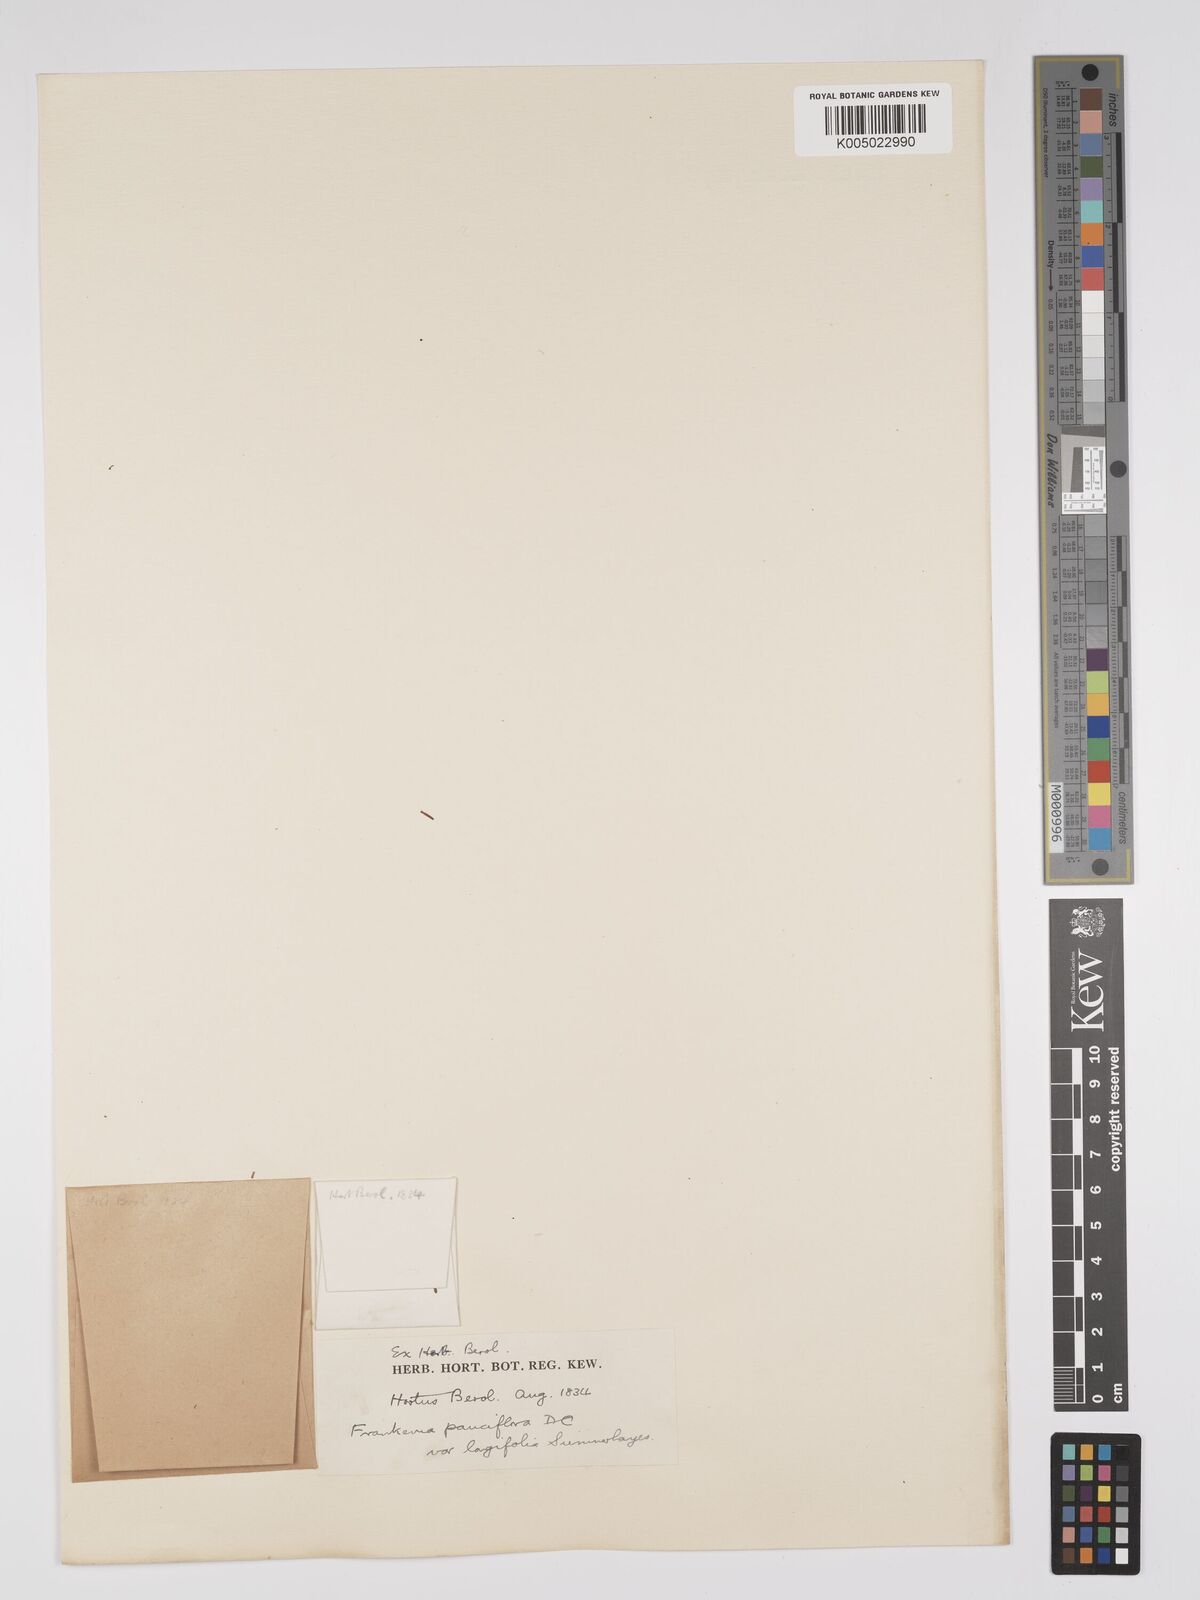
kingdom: Plantae
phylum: Tracheophyta
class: Magnoliopsida
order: Caryophyllales
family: Frankeniaceae
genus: Frankenia
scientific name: Frankenia pauciflora
